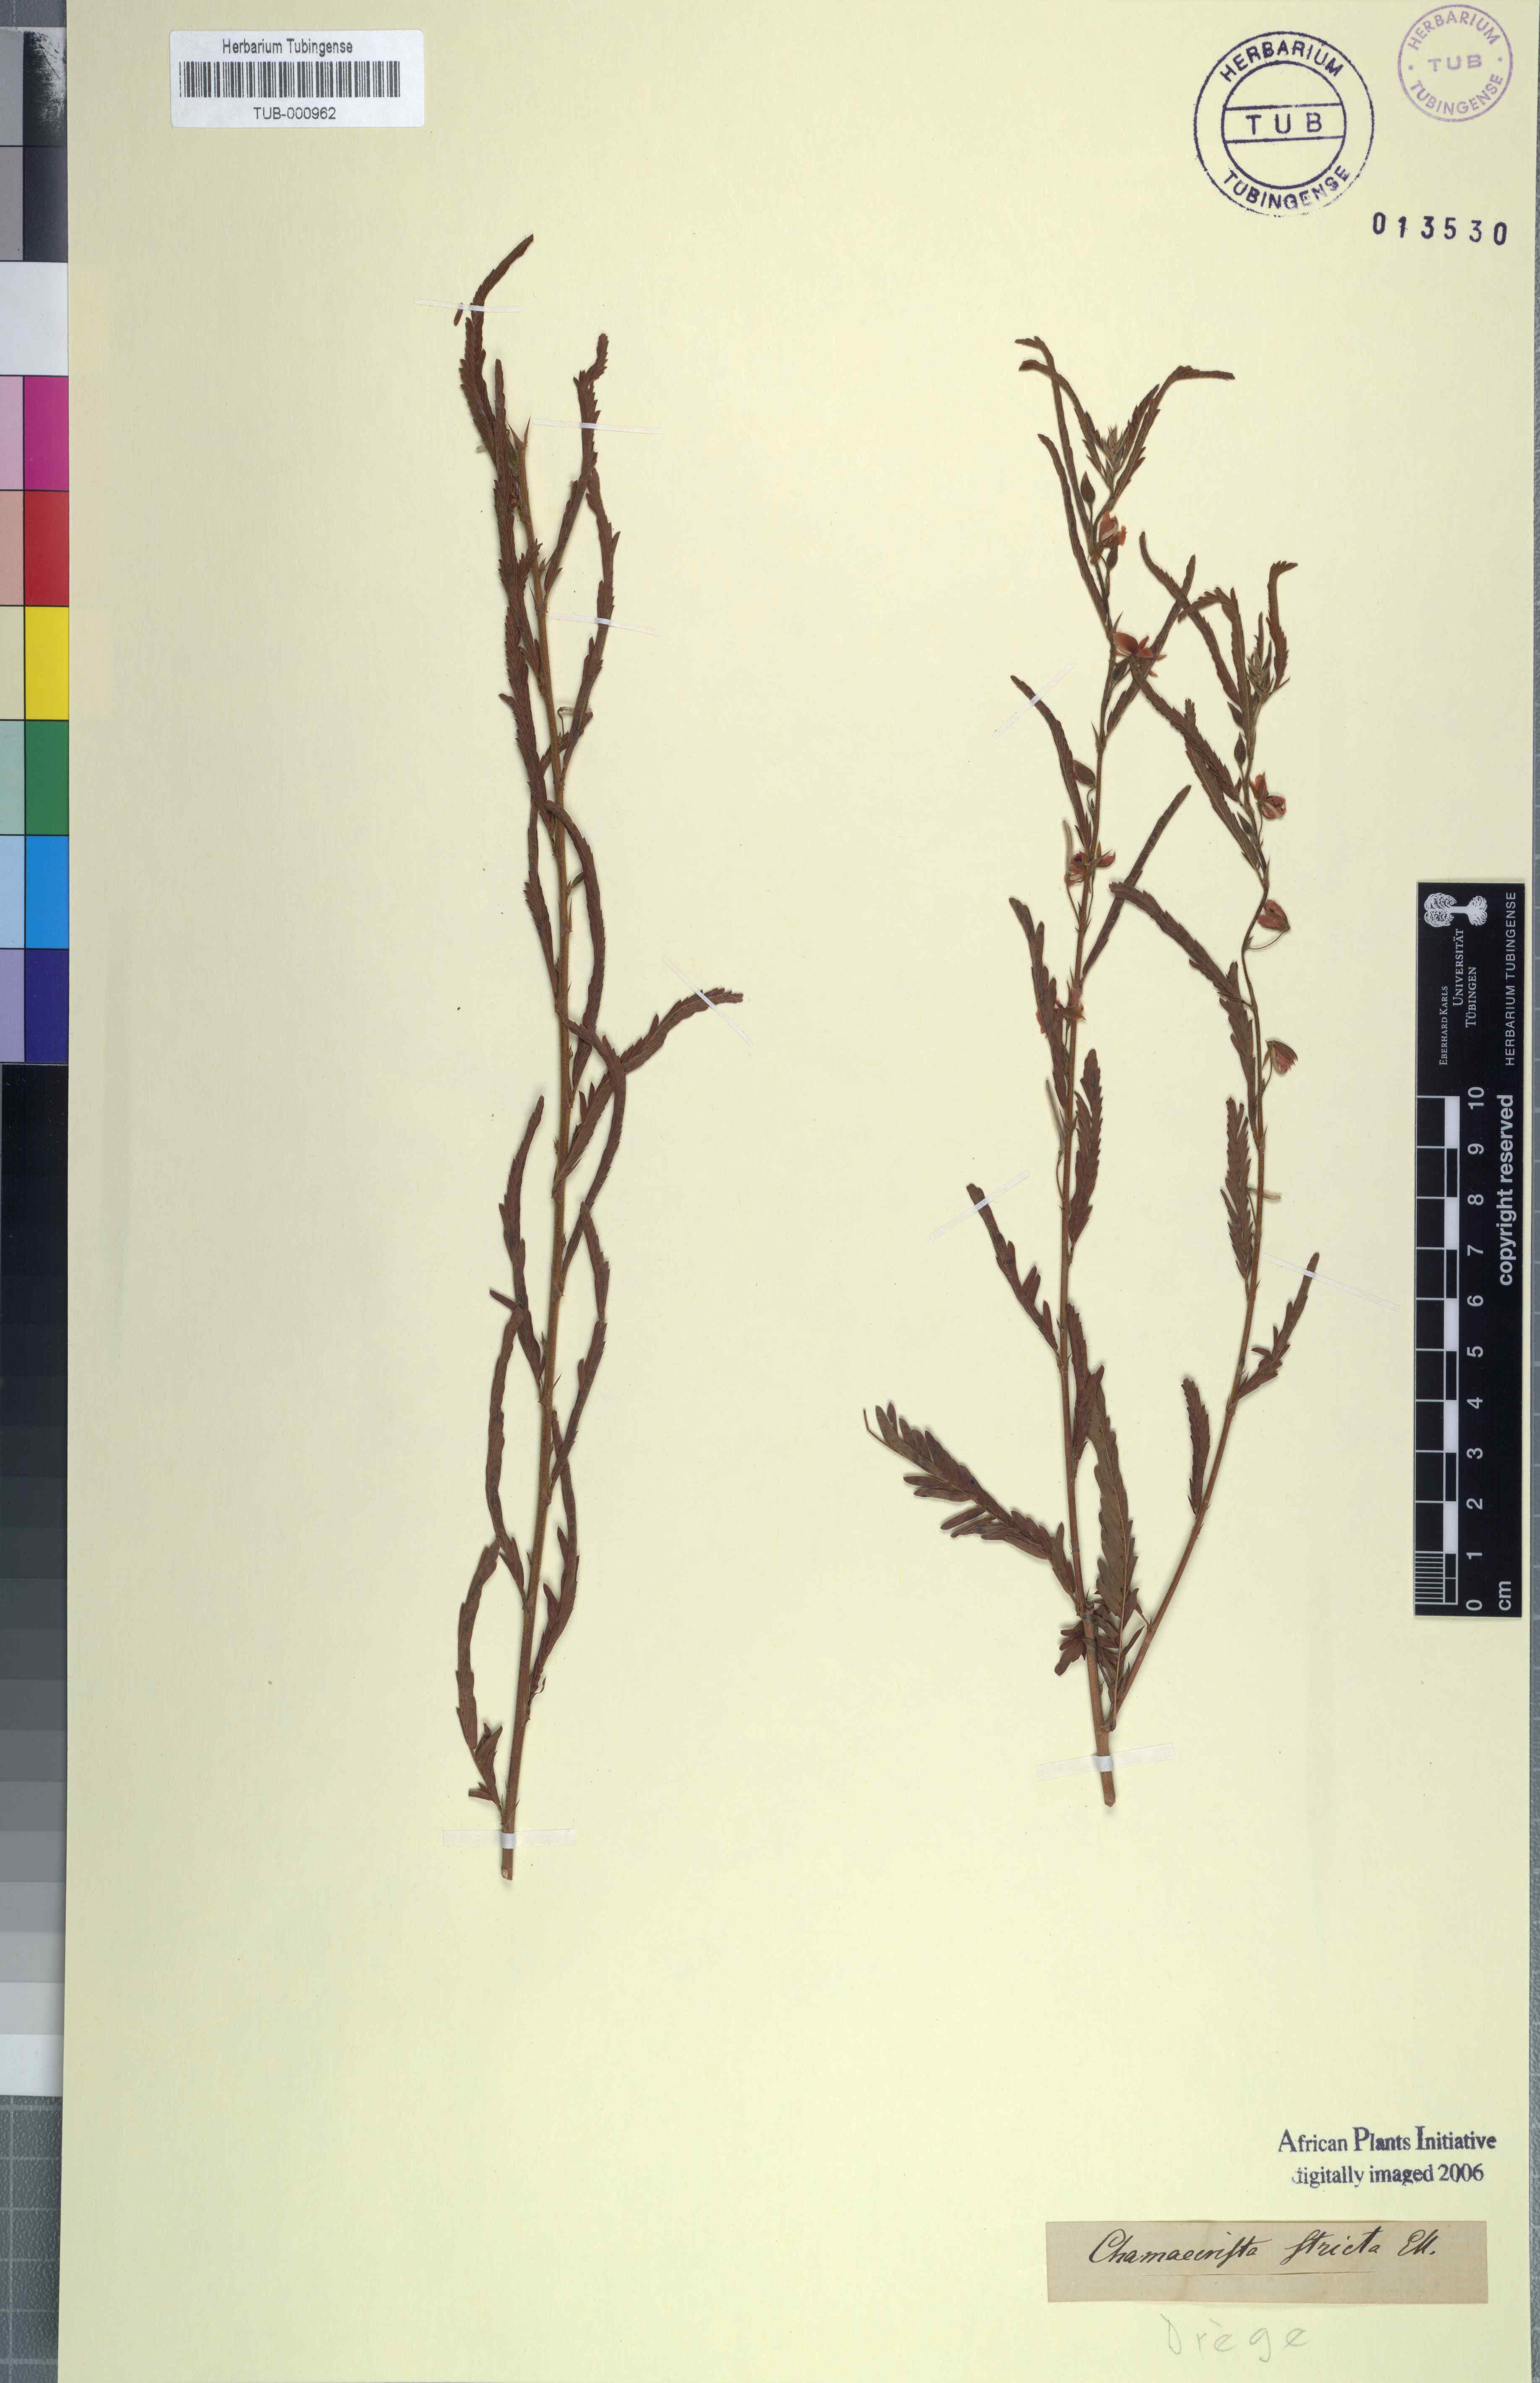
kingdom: Plantae
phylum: Tracheophyta
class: Magnoliopsida
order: Fabales
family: Fabaceae
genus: Chamaecrista
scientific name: Chamaecrista mimosoides
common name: Fish-bone cassia
